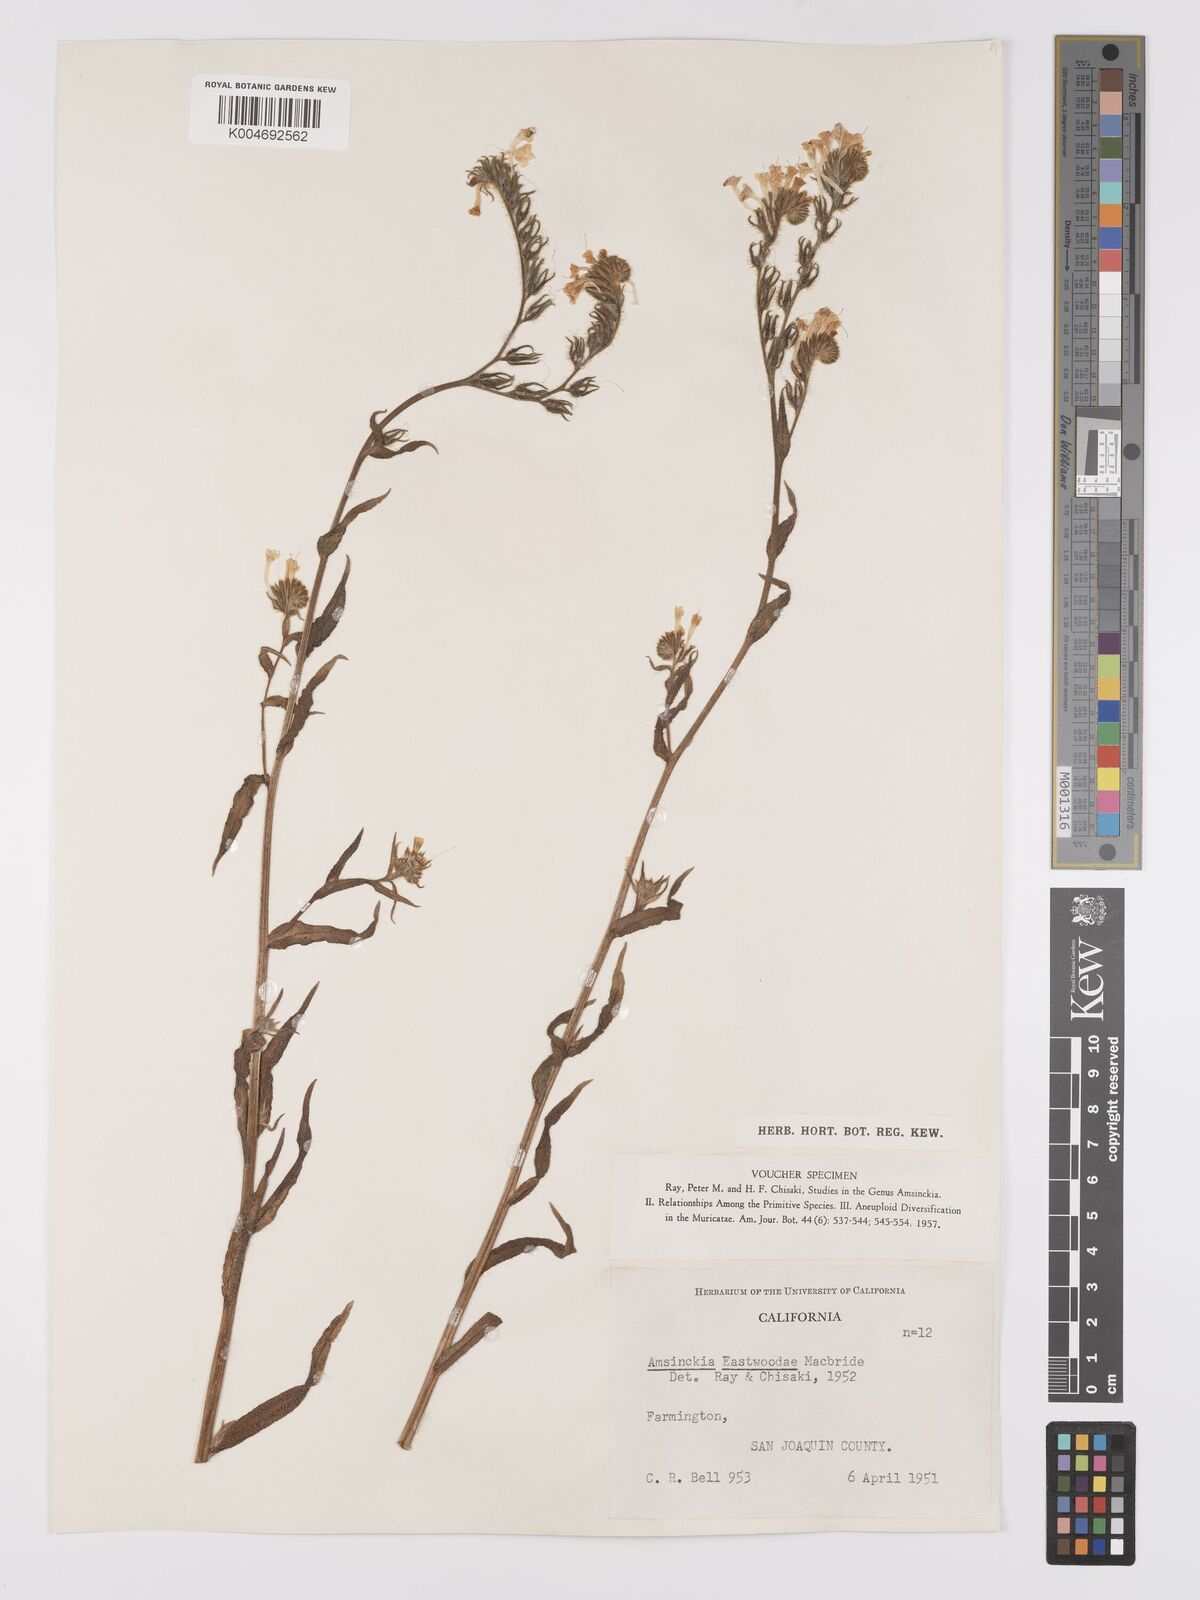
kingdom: Plantae
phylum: Tracheophyta
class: Magnoliopsida
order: Boraginales
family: Boraginaceae
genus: Amsinckia
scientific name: Amsinckia eastwoodiae
